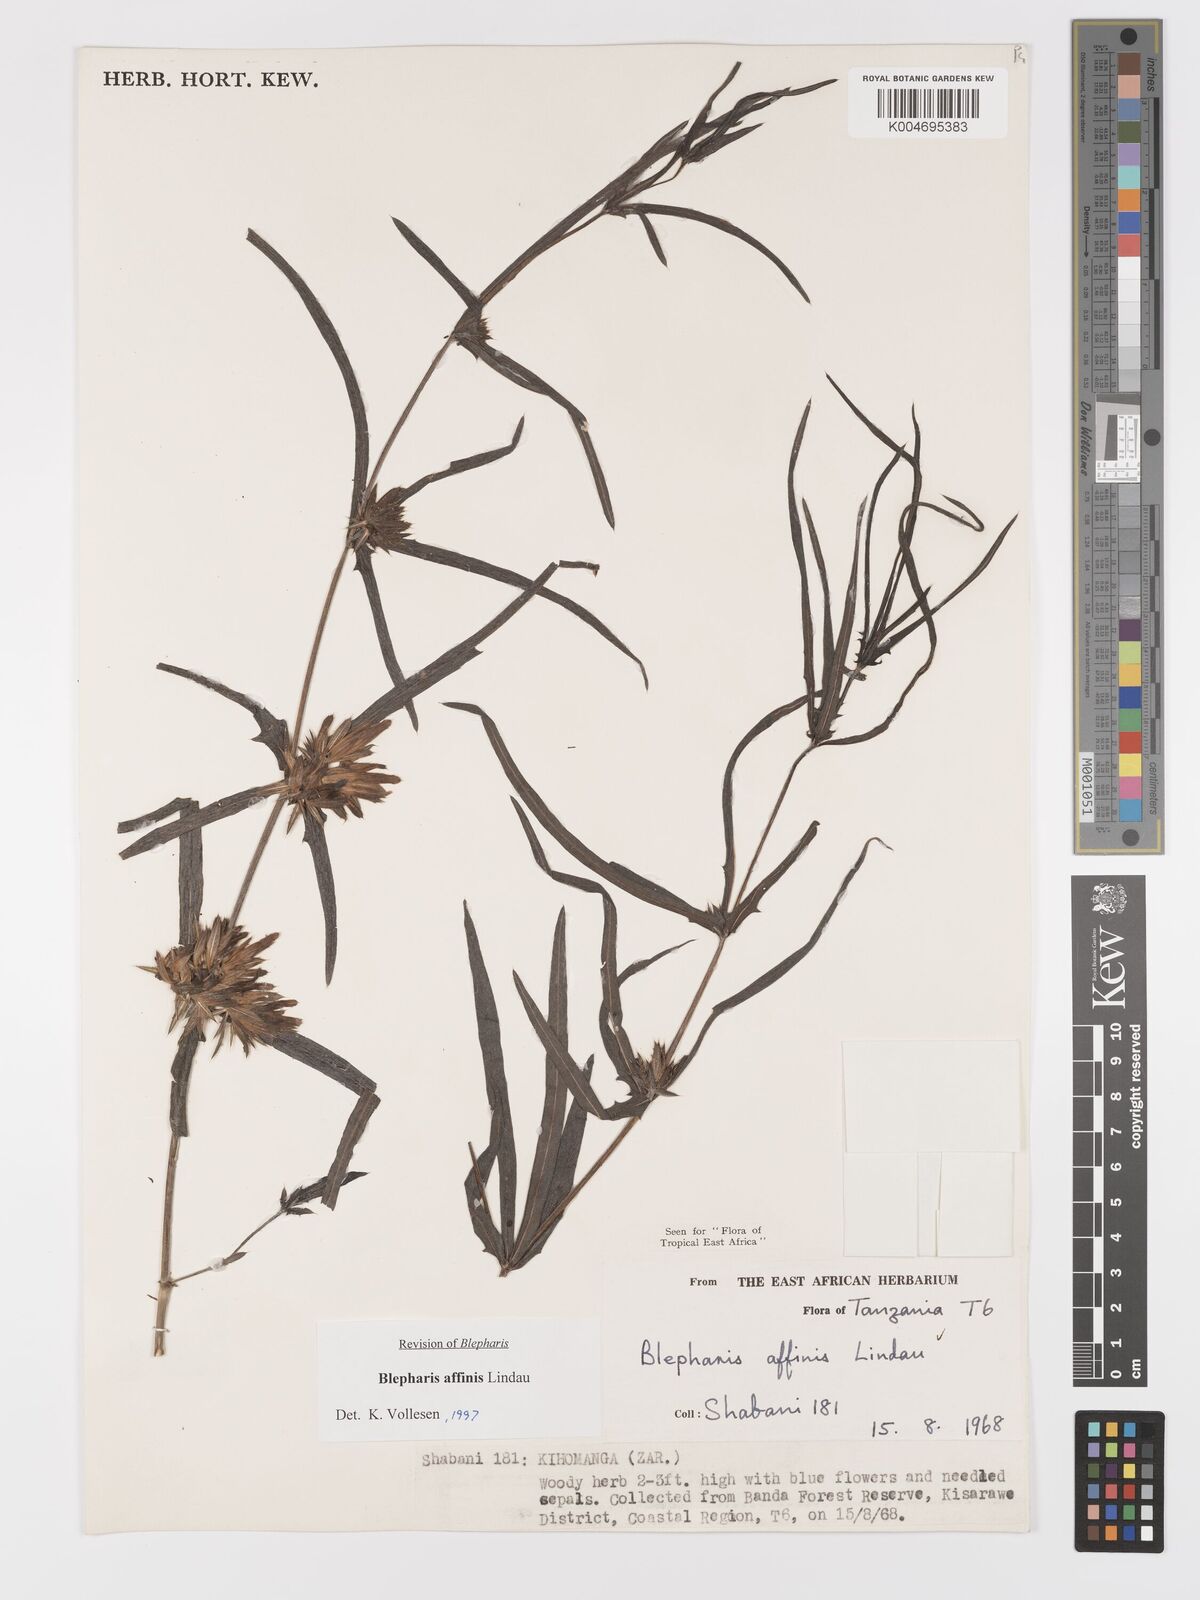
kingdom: Plantae
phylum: Tracheophyta
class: Magnoliopsida
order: Lamiales
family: Acanthaceae
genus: Blepharis
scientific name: Blepharis affinis
